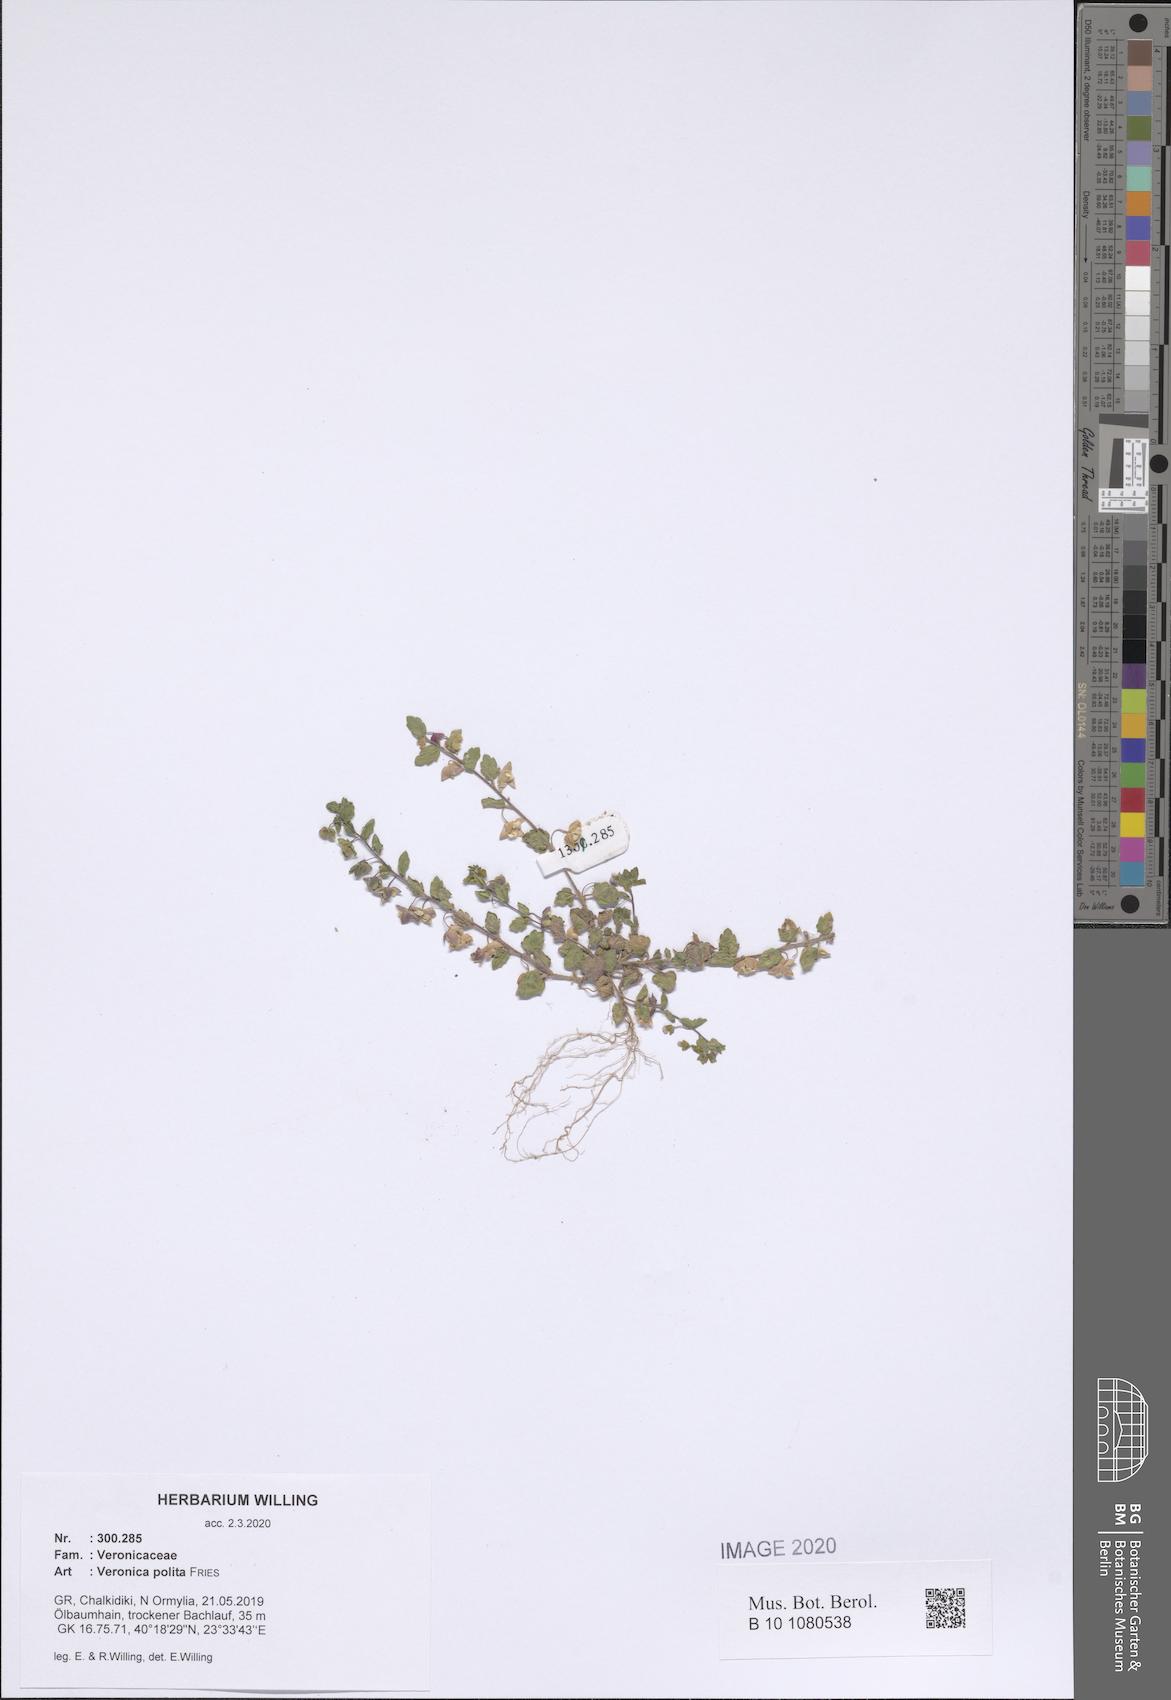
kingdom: Plantae
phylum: Tracheophyta
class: Magnoliopsida
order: Lamiales
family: Plantaginaceae
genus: Veronica
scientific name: Veronica polita
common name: Grey field-speedwell
